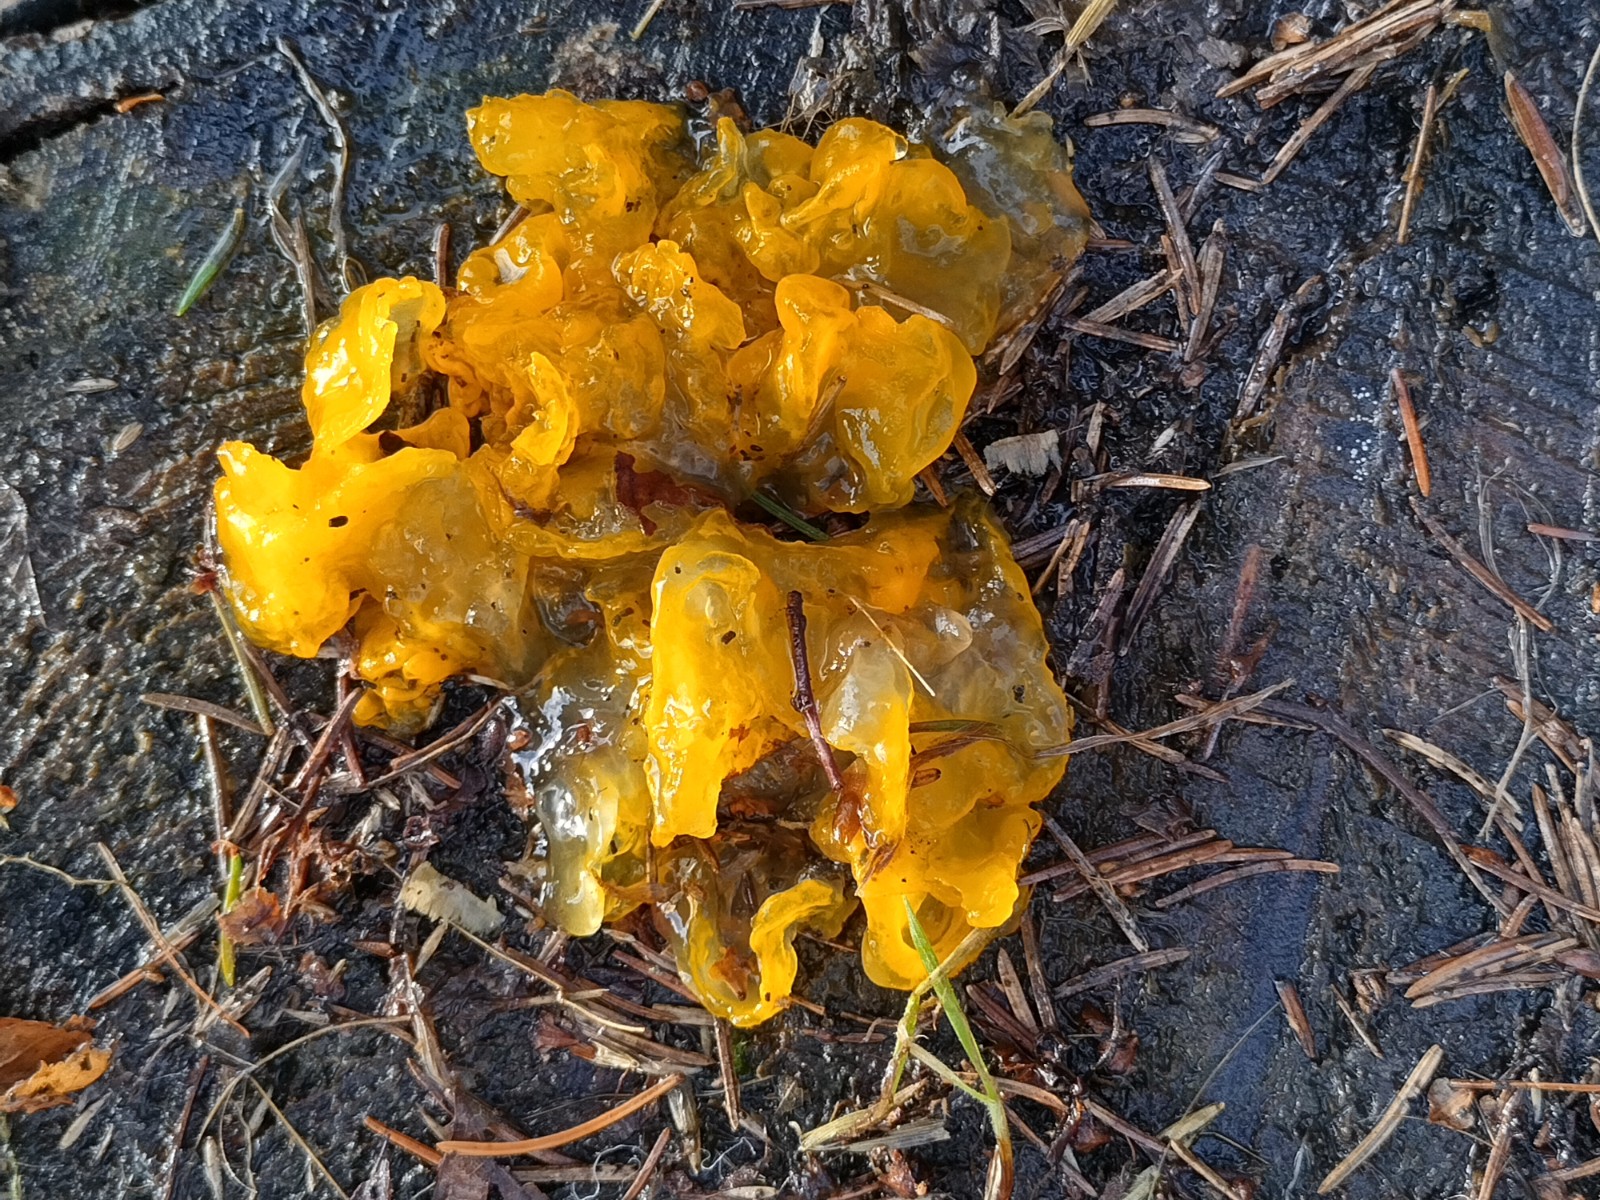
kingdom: Fungi
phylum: Basidiomycota
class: Tremellomycetes
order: Tremellales
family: Tremellaceae
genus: Tremella
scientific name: Tremella mesenterica
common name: gul bævresvamp
